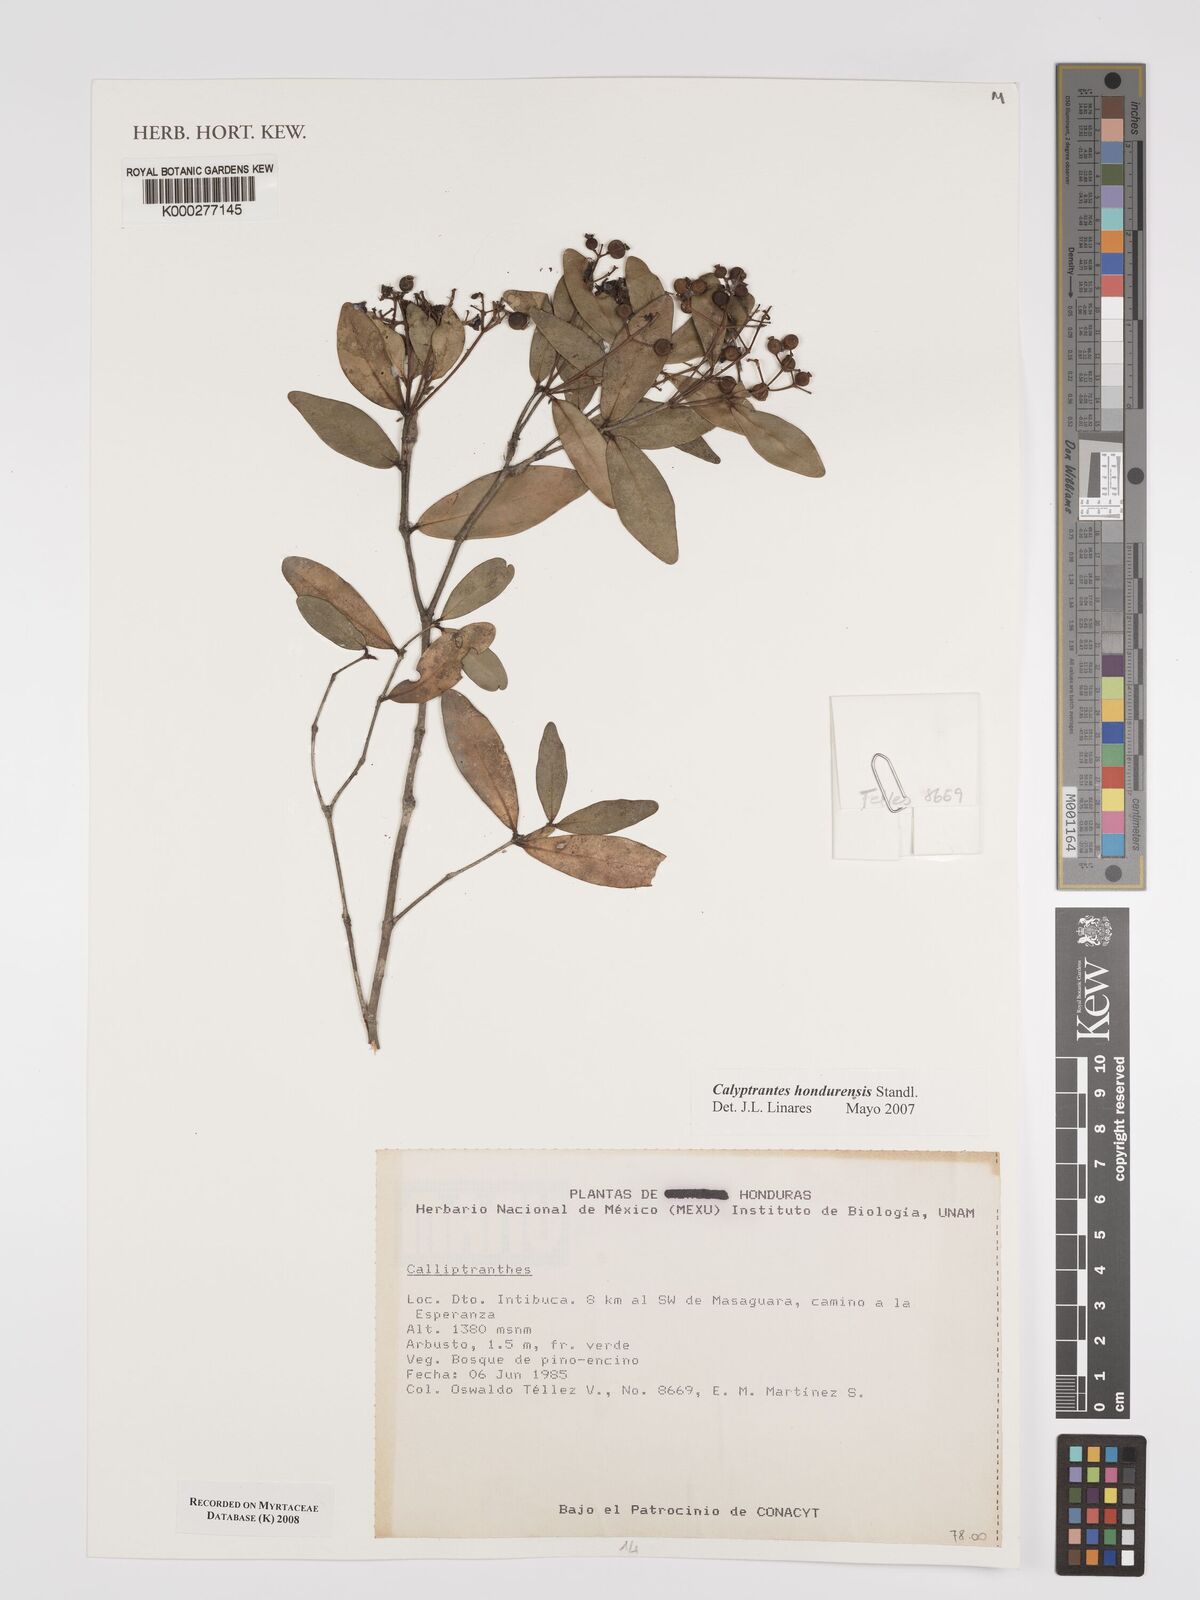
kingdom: Plantae
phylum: Tracheophyta
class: Magnoliopsida
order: Myrtales
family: Myrtaceae
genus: Myrcia
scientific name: Myrcia hondurensis
